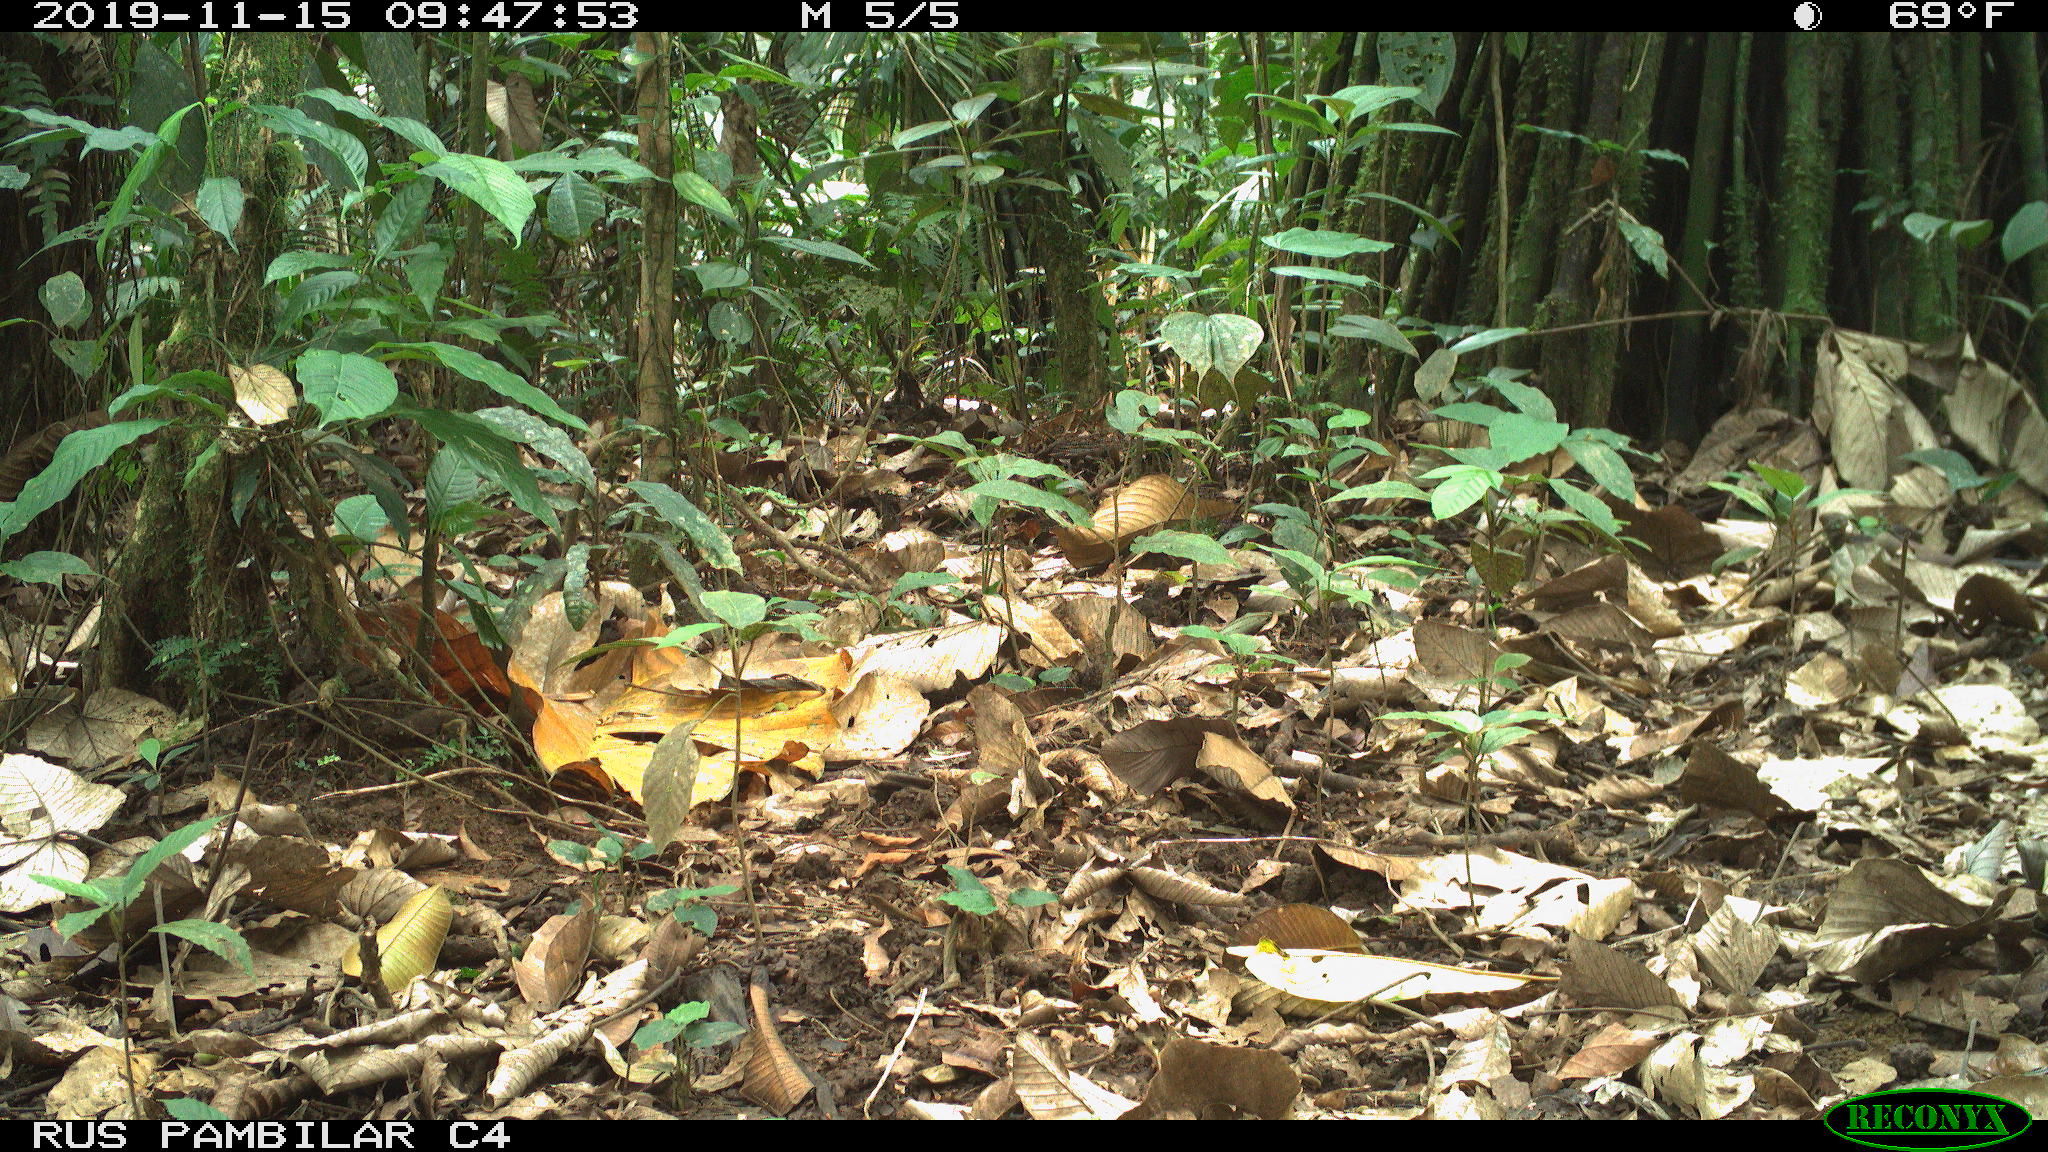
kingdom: Animalia
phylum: Chordata
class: Mammalia
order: Artiodactyla
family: Tayassuidae
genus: Tayassu
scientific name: Tayassu pecari
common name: White-lipped peccary
